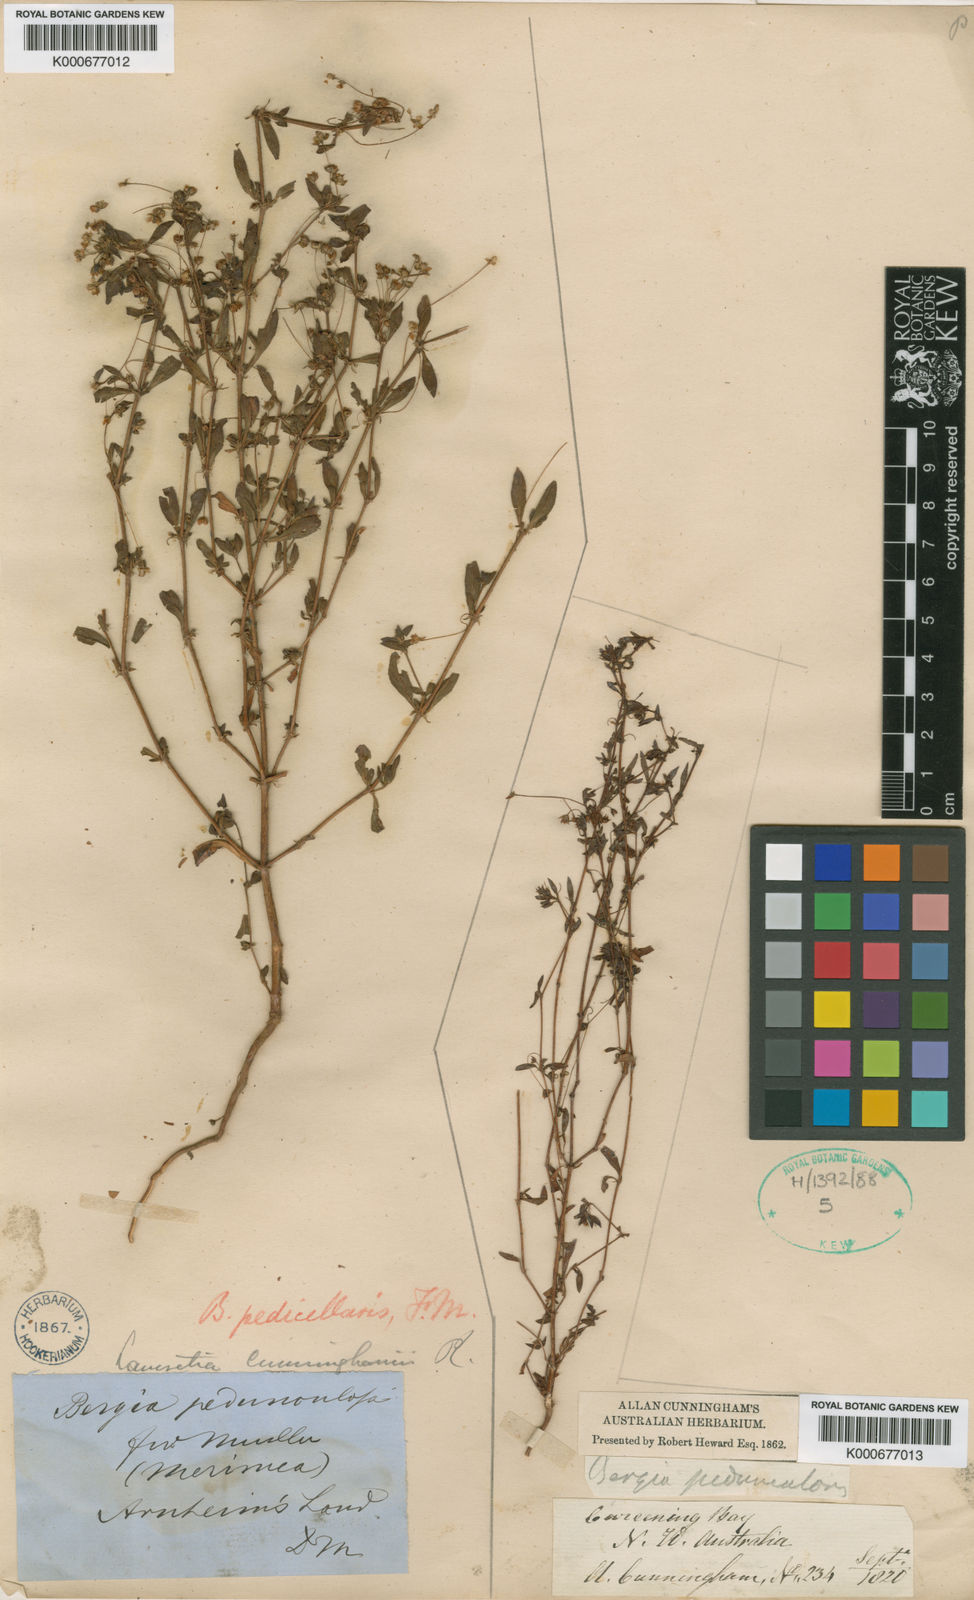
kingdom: Plantae
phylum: Tracheophyta
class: Magnoliopsida
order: Malpighiales
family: Elatinaceae
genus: Bergia
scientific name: Bergia pedicellaris
